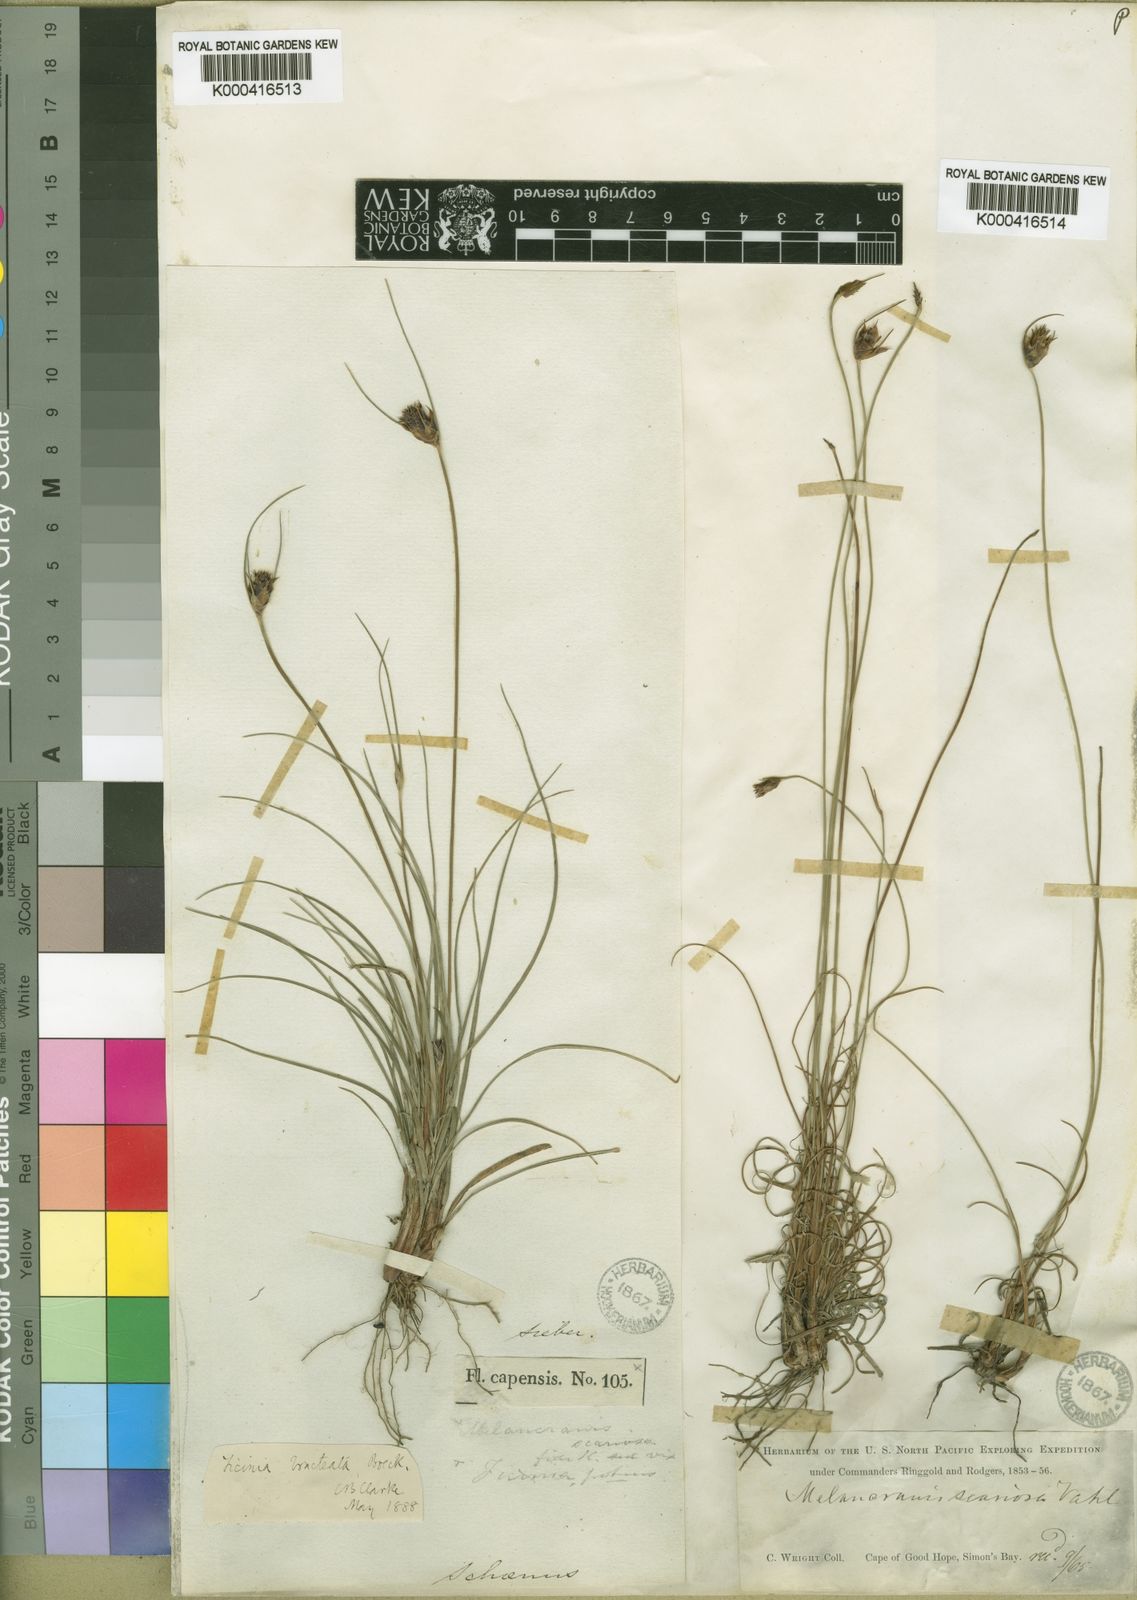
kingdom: Plantae
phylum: Tracheophyta
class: Liliopsida
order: Poales
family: Cyperaceae
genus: Ficinia
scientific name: Ficinia nigrescens
